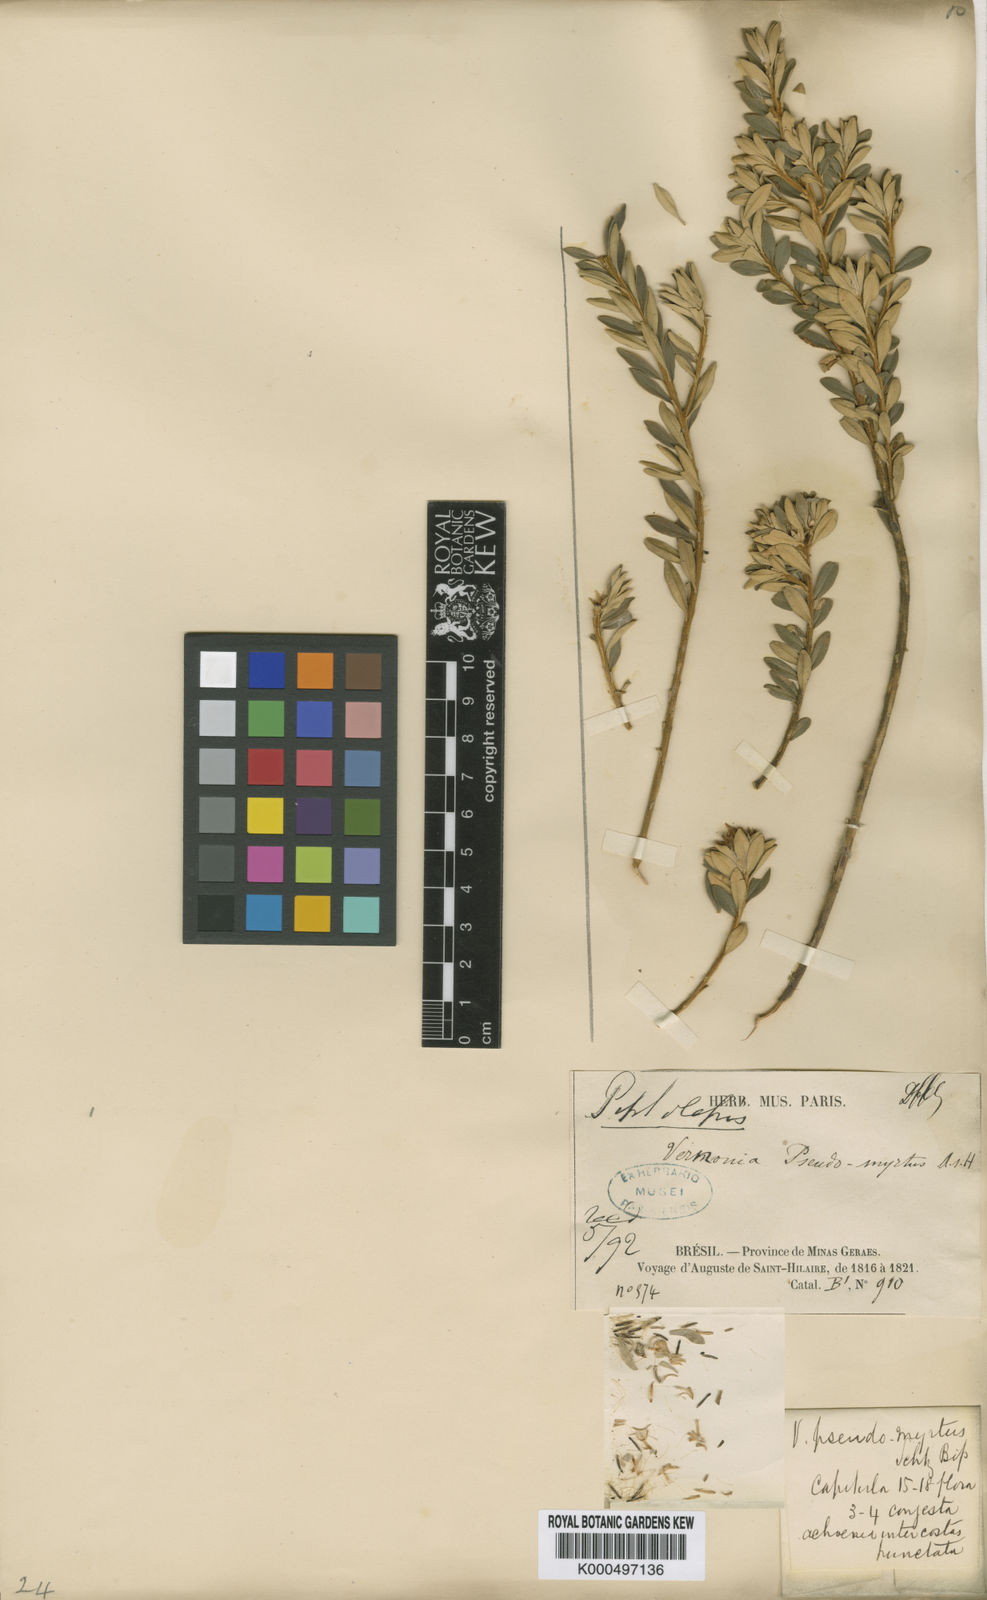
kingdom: Plantae
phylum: Tracheophyta
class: Magnoliopsida
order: Asterales
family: Asteraceae
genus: Piptolepis
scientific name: Piptolepis pseudomyrtus
